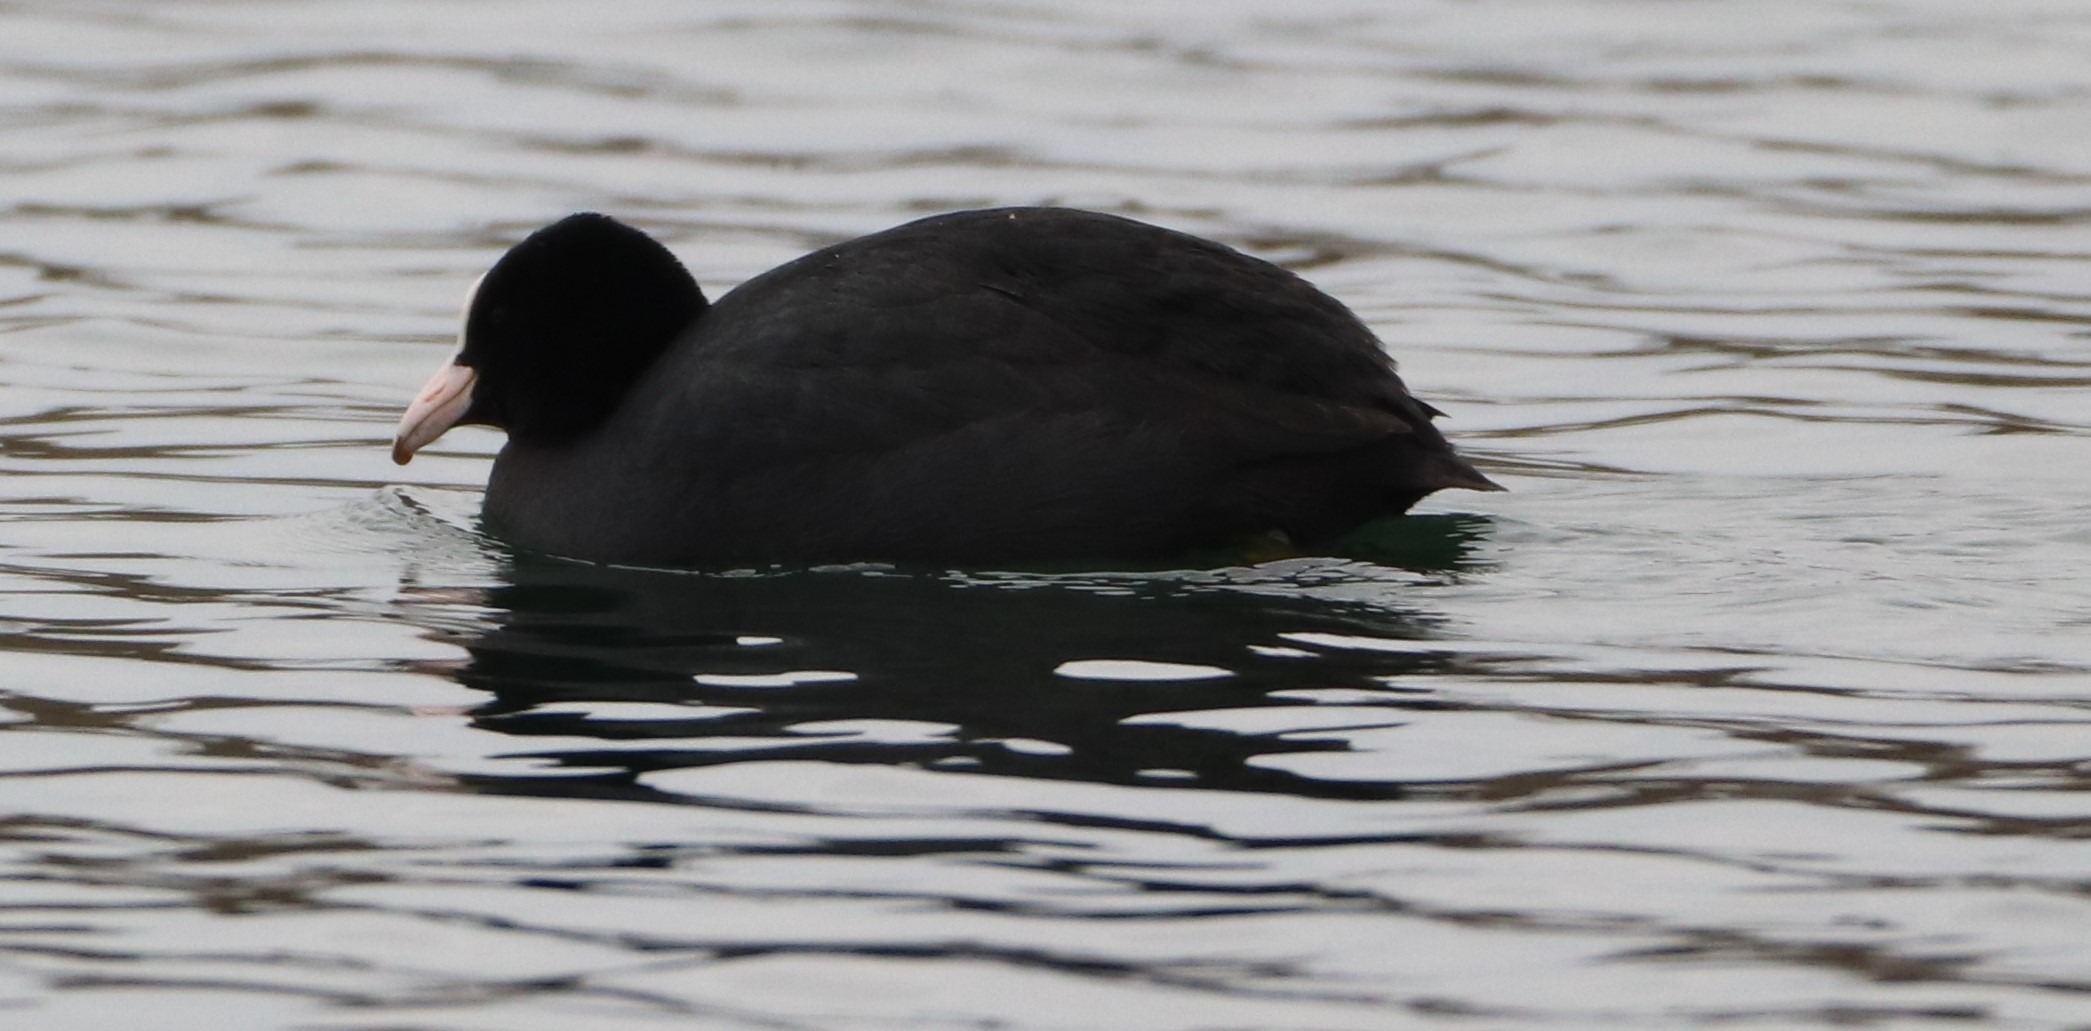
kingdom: Animalia
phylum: Chordata
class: Aves
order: Gruiformes
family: Rallidae
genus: Fulica
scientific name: Fulica atra
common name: Blishøne
